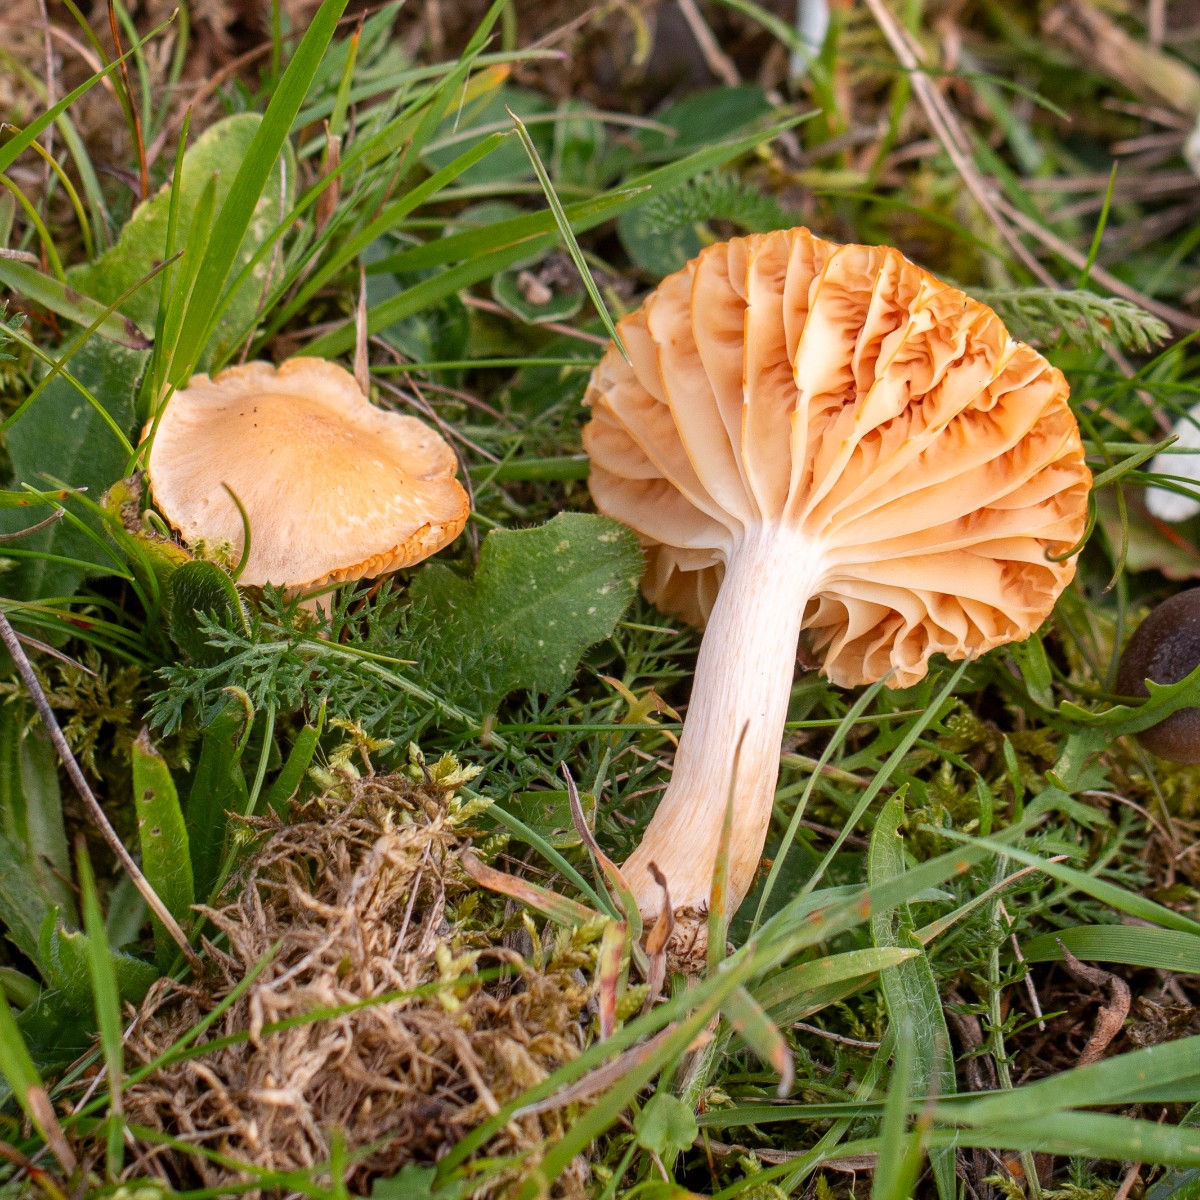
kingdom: Fungi
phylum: Basidiomycota
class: Agaricomycetes
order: Agaricales
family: Hygrophoraceae
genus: Cuphophyllus
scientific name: Cuphophyllus pratensis
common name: eng-vokshat
